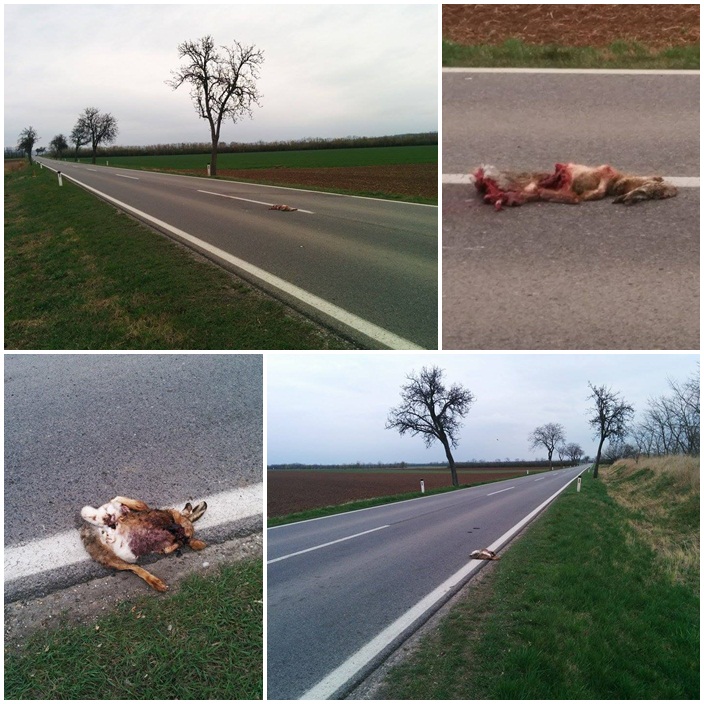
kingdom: Animalia
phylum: Chordata
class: Mammalia
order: Lagomorpha
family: Leporidae
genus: Lepus
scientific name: Lepus europaeus
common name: European hare
